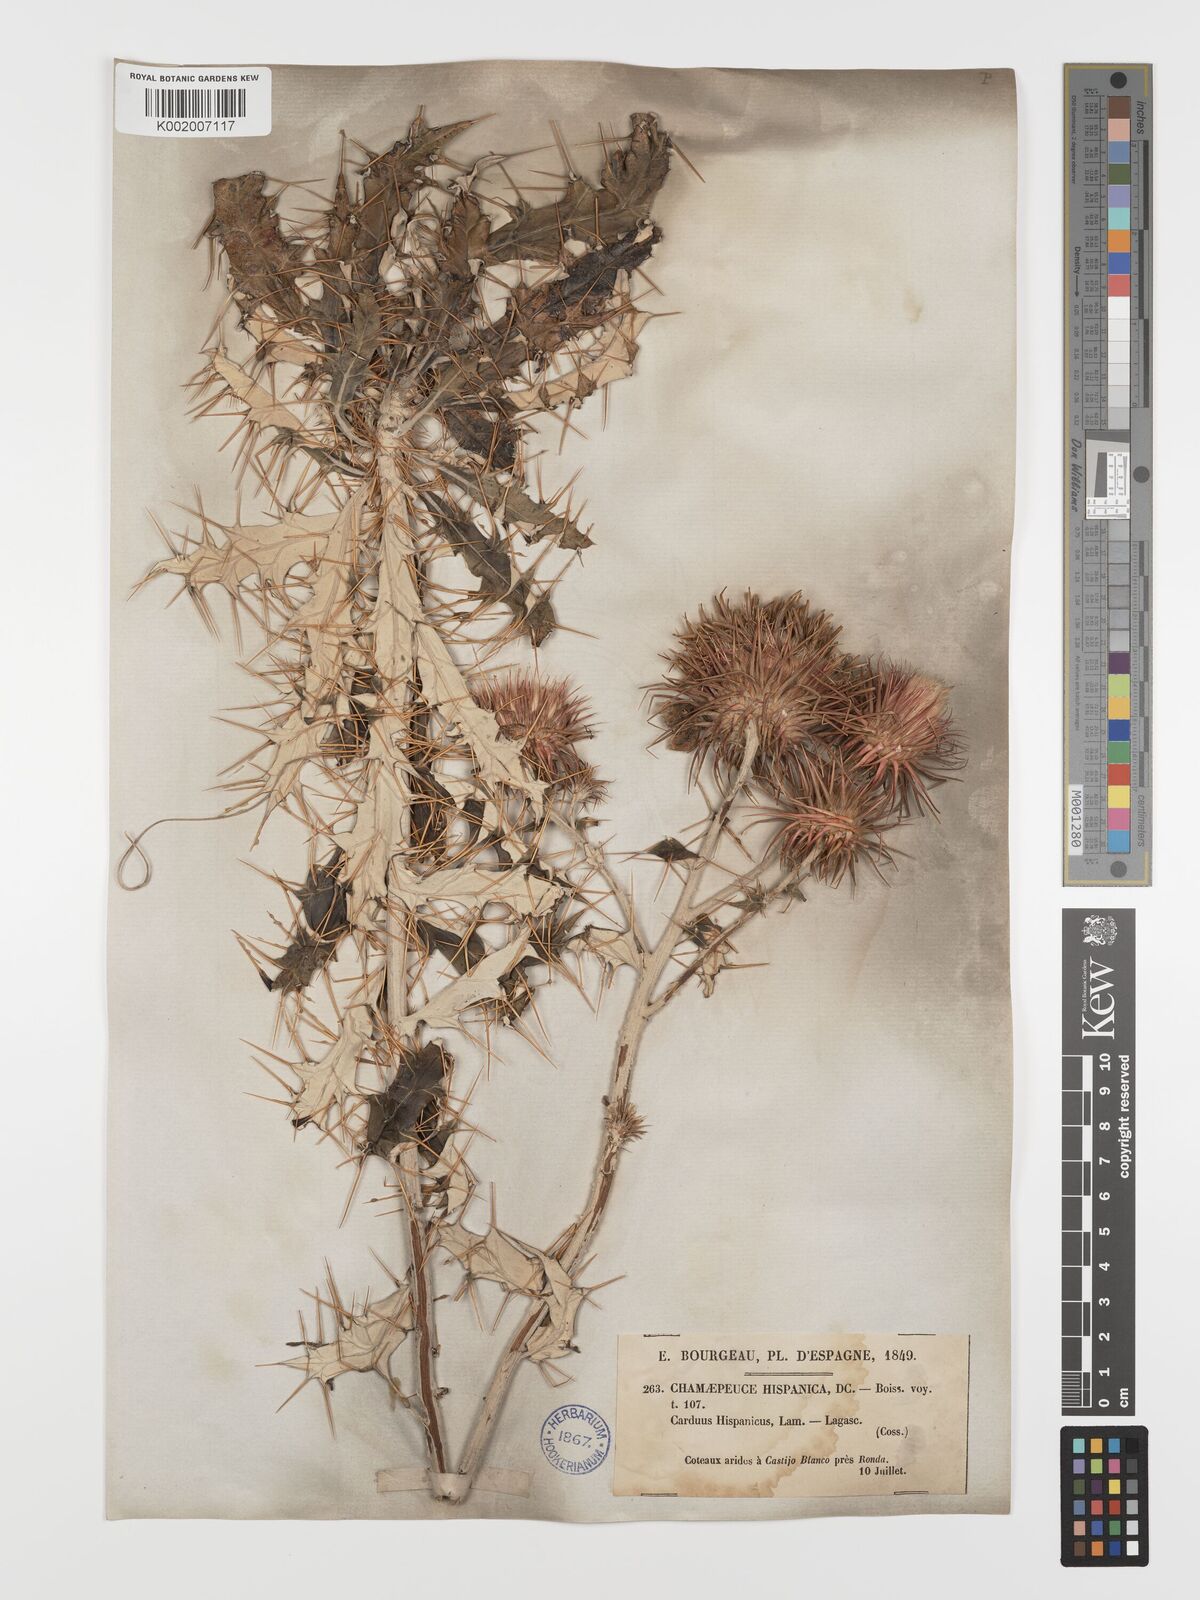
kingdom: Plantae
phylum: Tracheophyta
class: Magnoliopsida
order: Asterales
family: Asteraceae
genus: Ptilostemon
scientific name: Ptilostemon hispanicus
